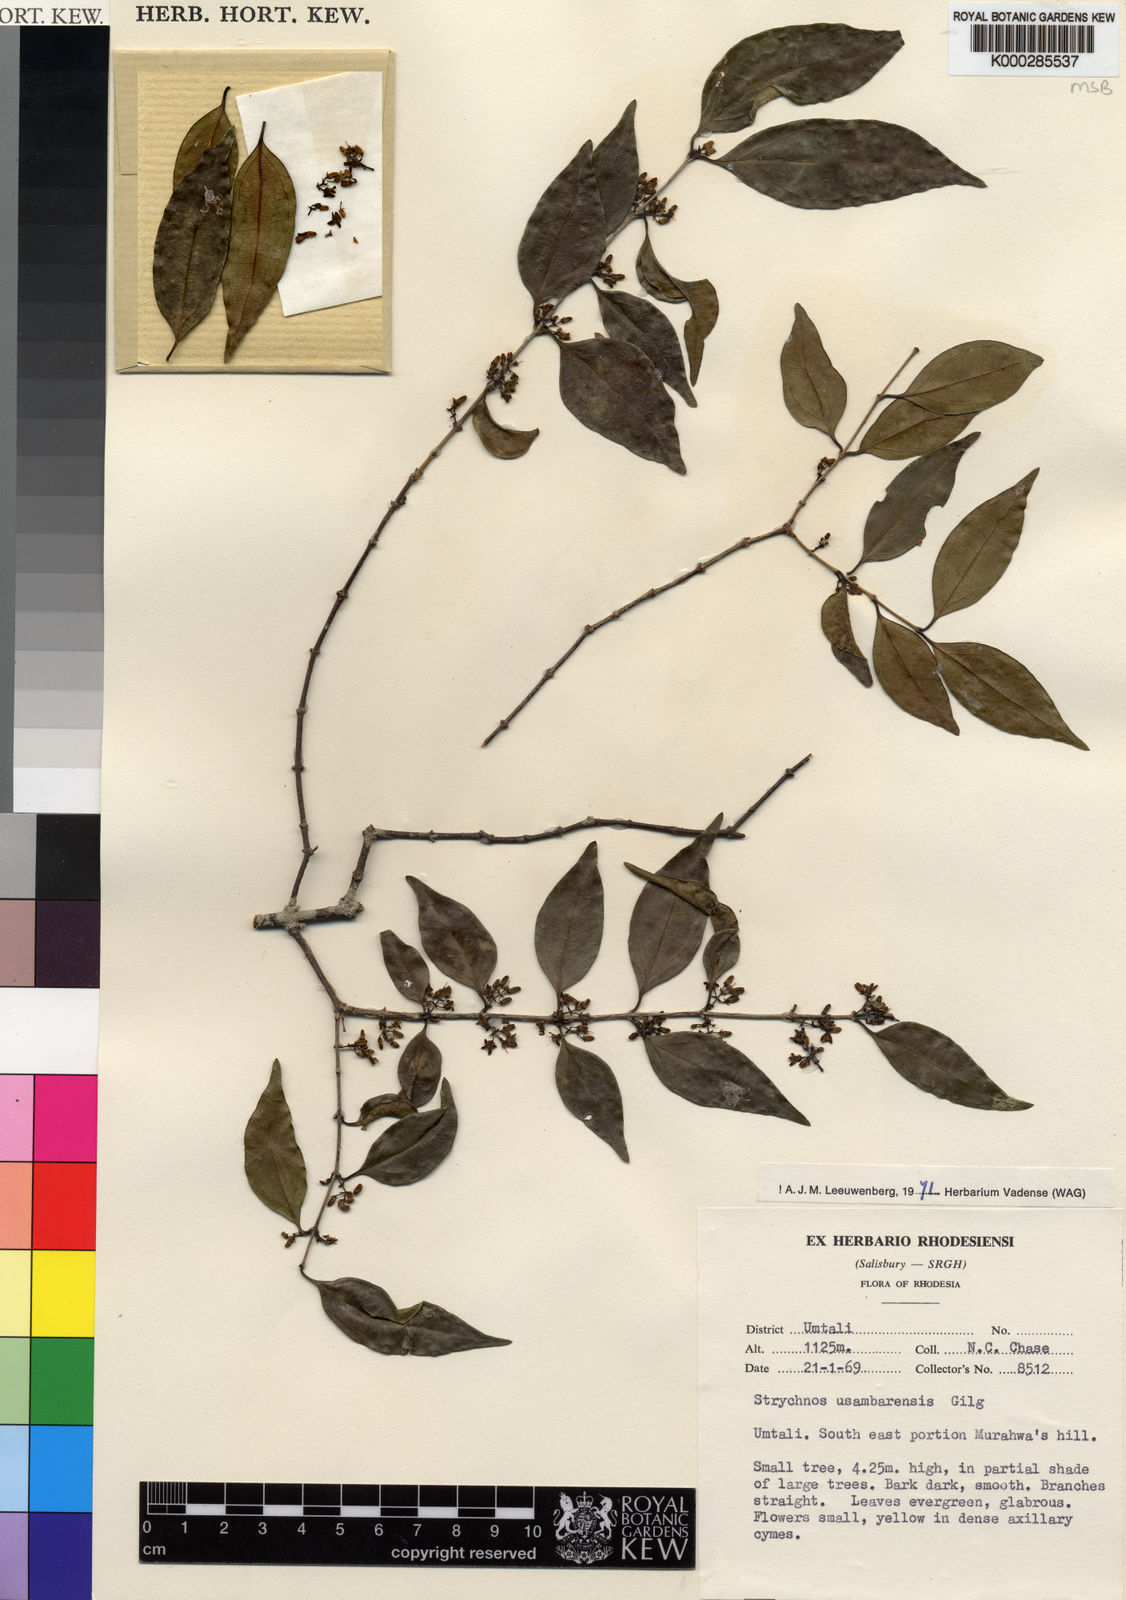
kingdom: Plantae
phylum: Tracheophyta
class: Magnoliopsida
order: Gentianales
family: Loganiaceae
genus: Strychnos
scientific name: Strychnos usambarensis
